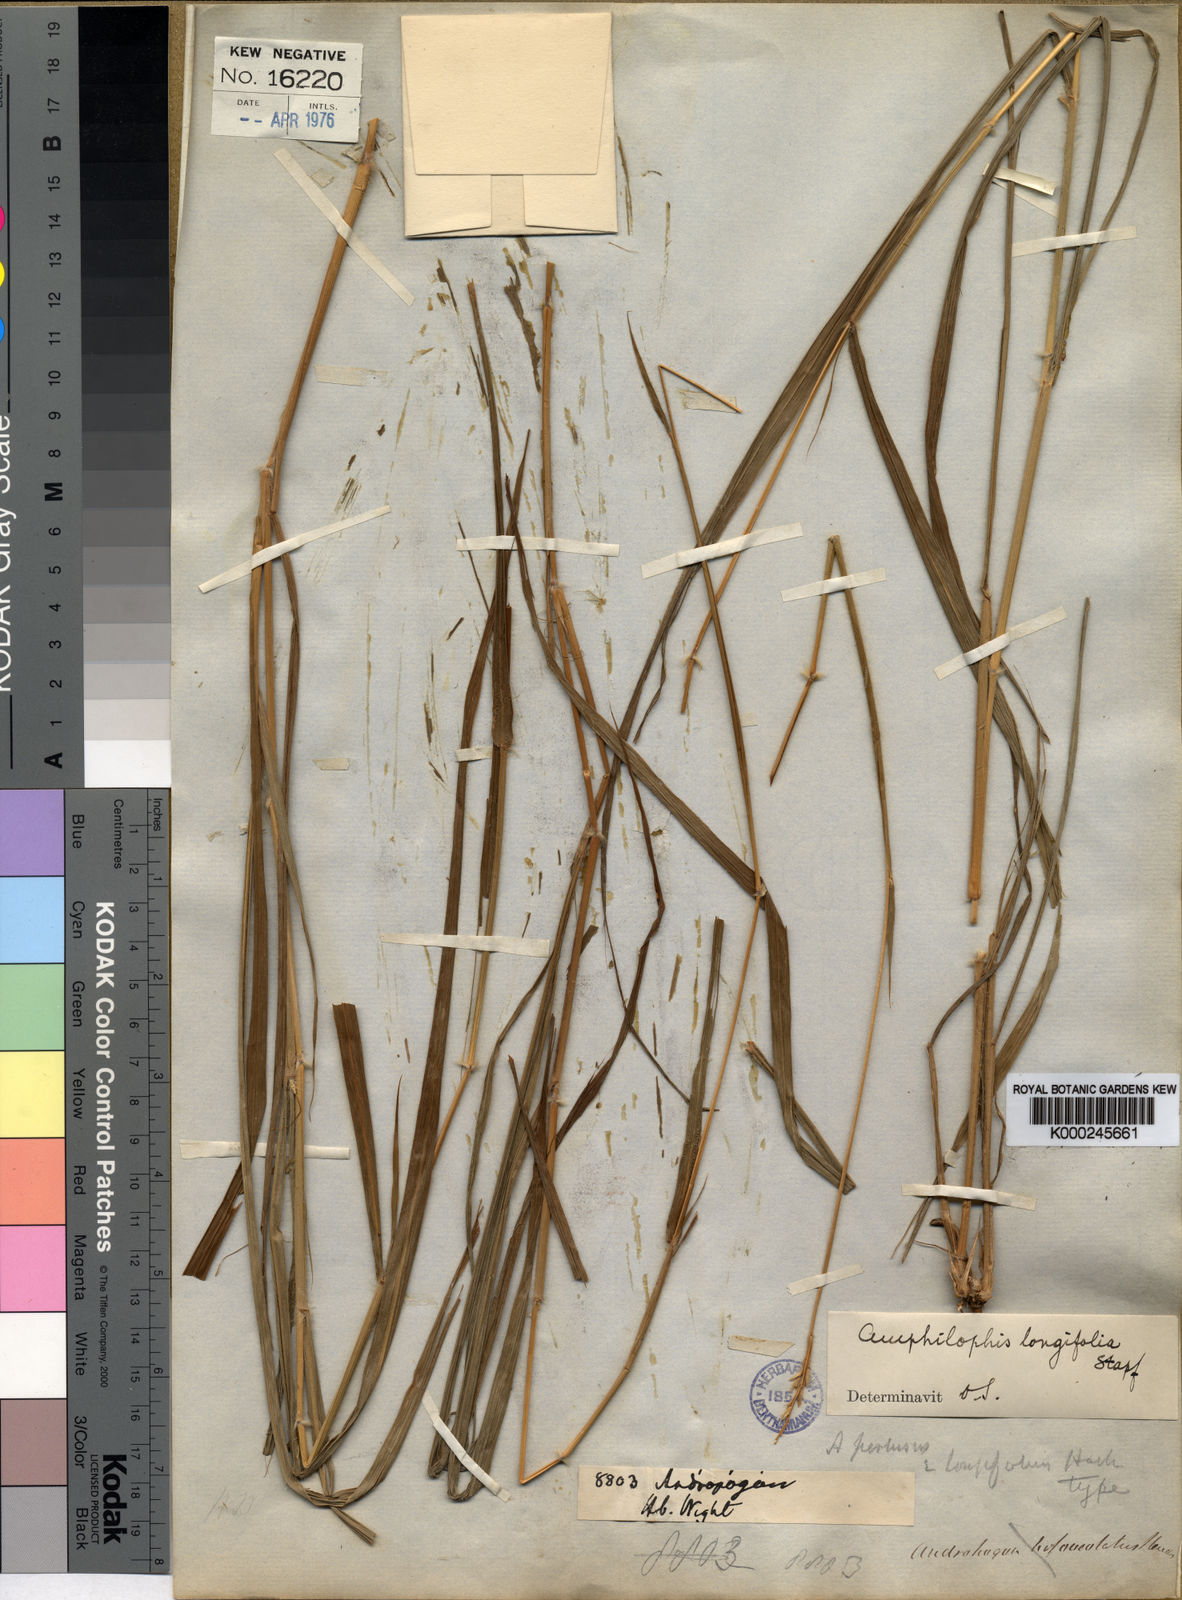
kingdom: Plantae
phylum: Tracheophyta
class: Liliopsida
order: Poales
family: Poaceae
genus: Bothriochloa
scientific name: Bothriochloa longifolia
